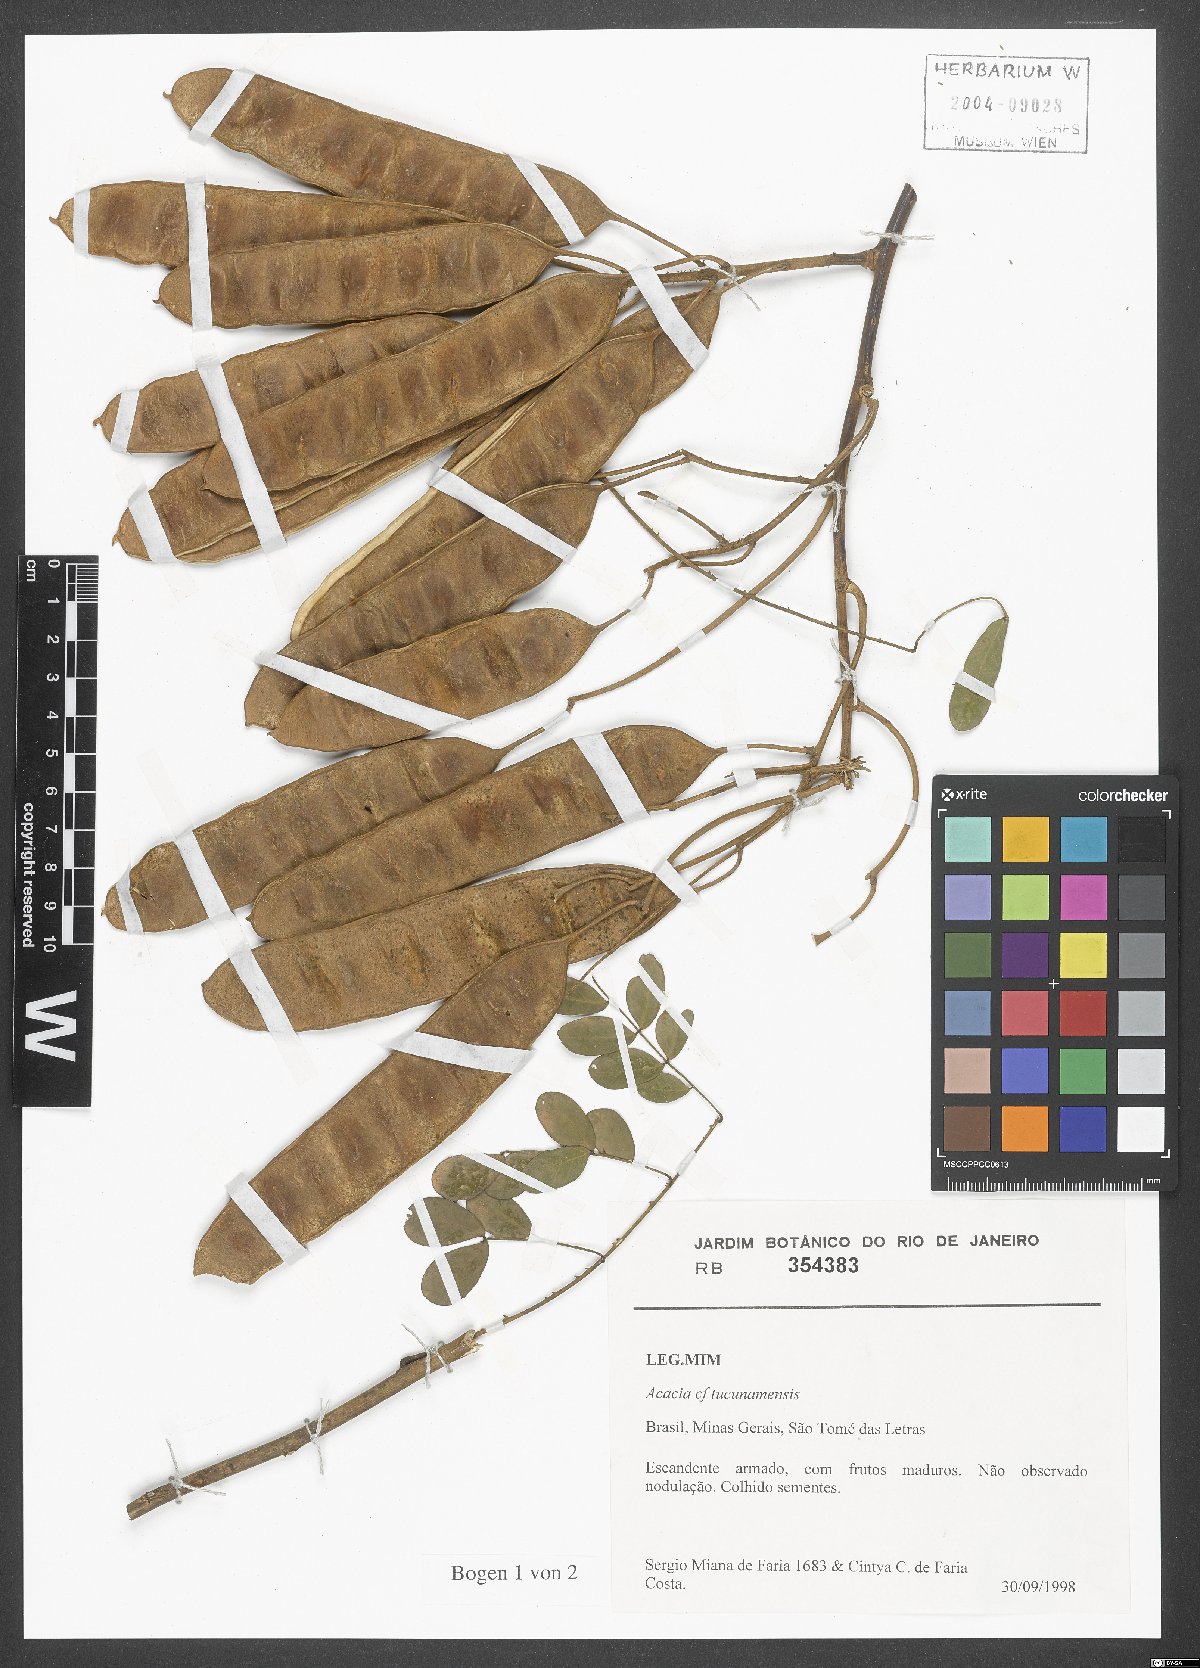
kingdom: Plantae
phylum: Tracheophyta
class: Magnoliopsida
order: Fabales
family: Fabaceae
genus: Senegalia
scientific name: Senegalia tucumanensis
